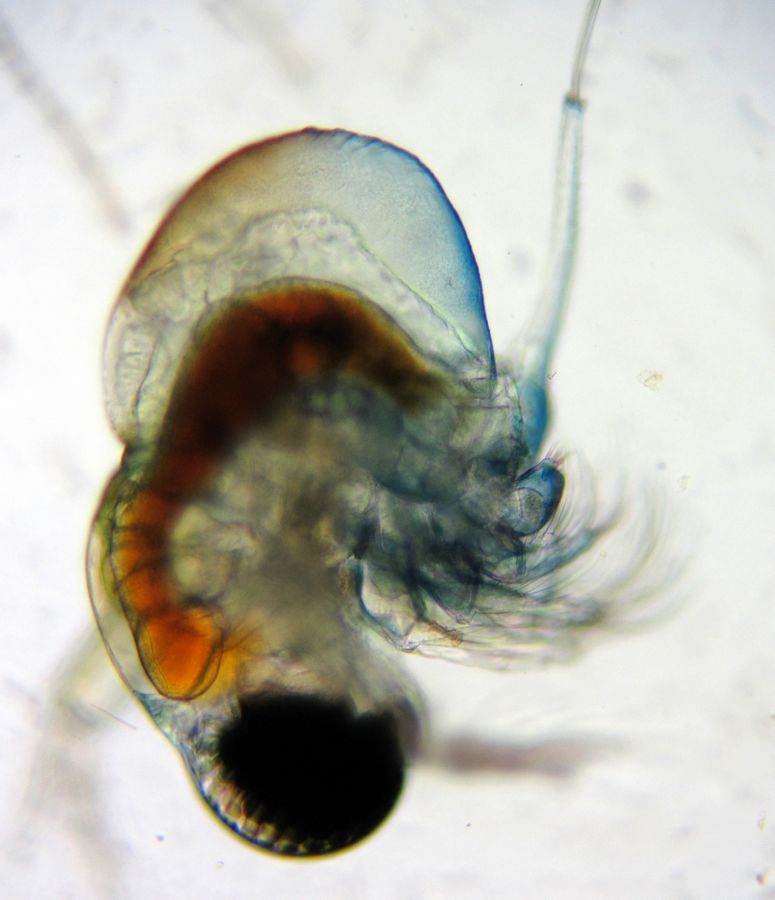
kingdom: Animalia
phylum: Arthropoda
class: Branchiopoda
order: Diplostraca
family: Polyphemidae
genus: Polyphemus
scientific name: Polyphemus pediculus
